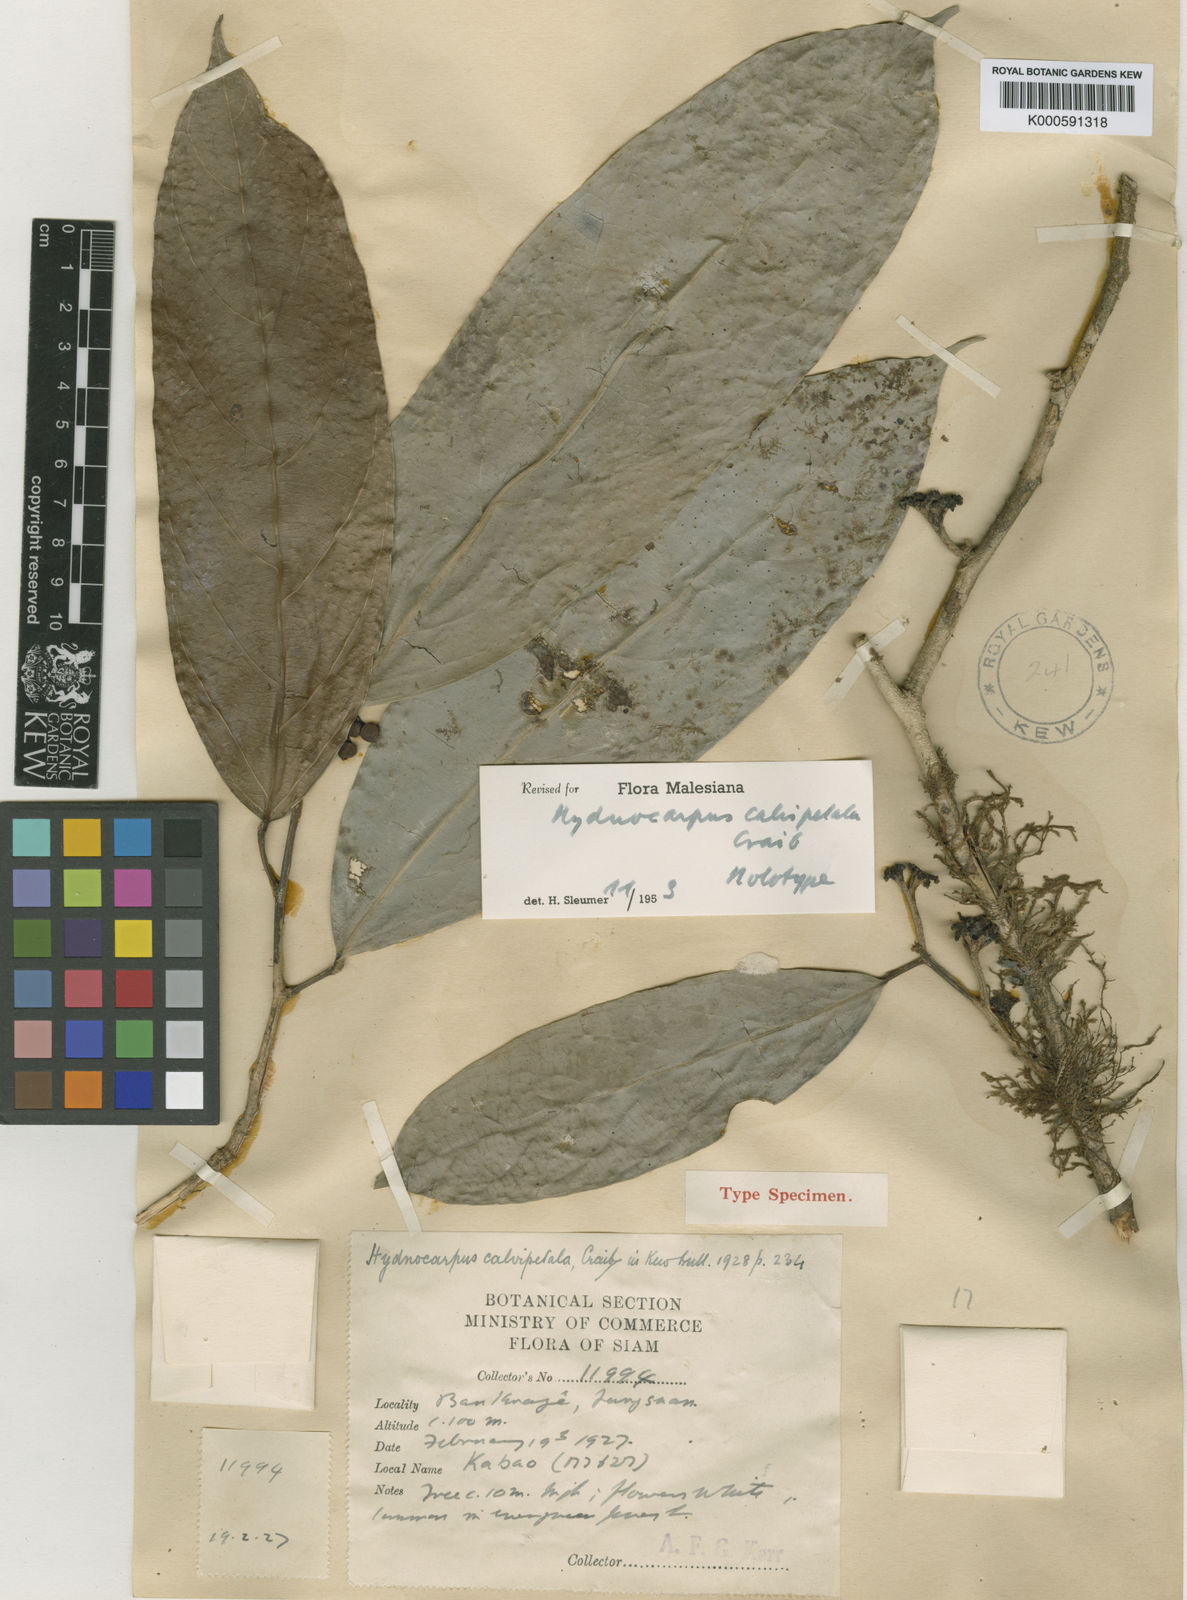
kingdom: Plantae
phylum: Tracheophyta
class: Magnoliopsida
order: Malpighiales
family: Achariaceae
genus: Hydnocarpus
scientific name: Hydnocarpus wrayi
